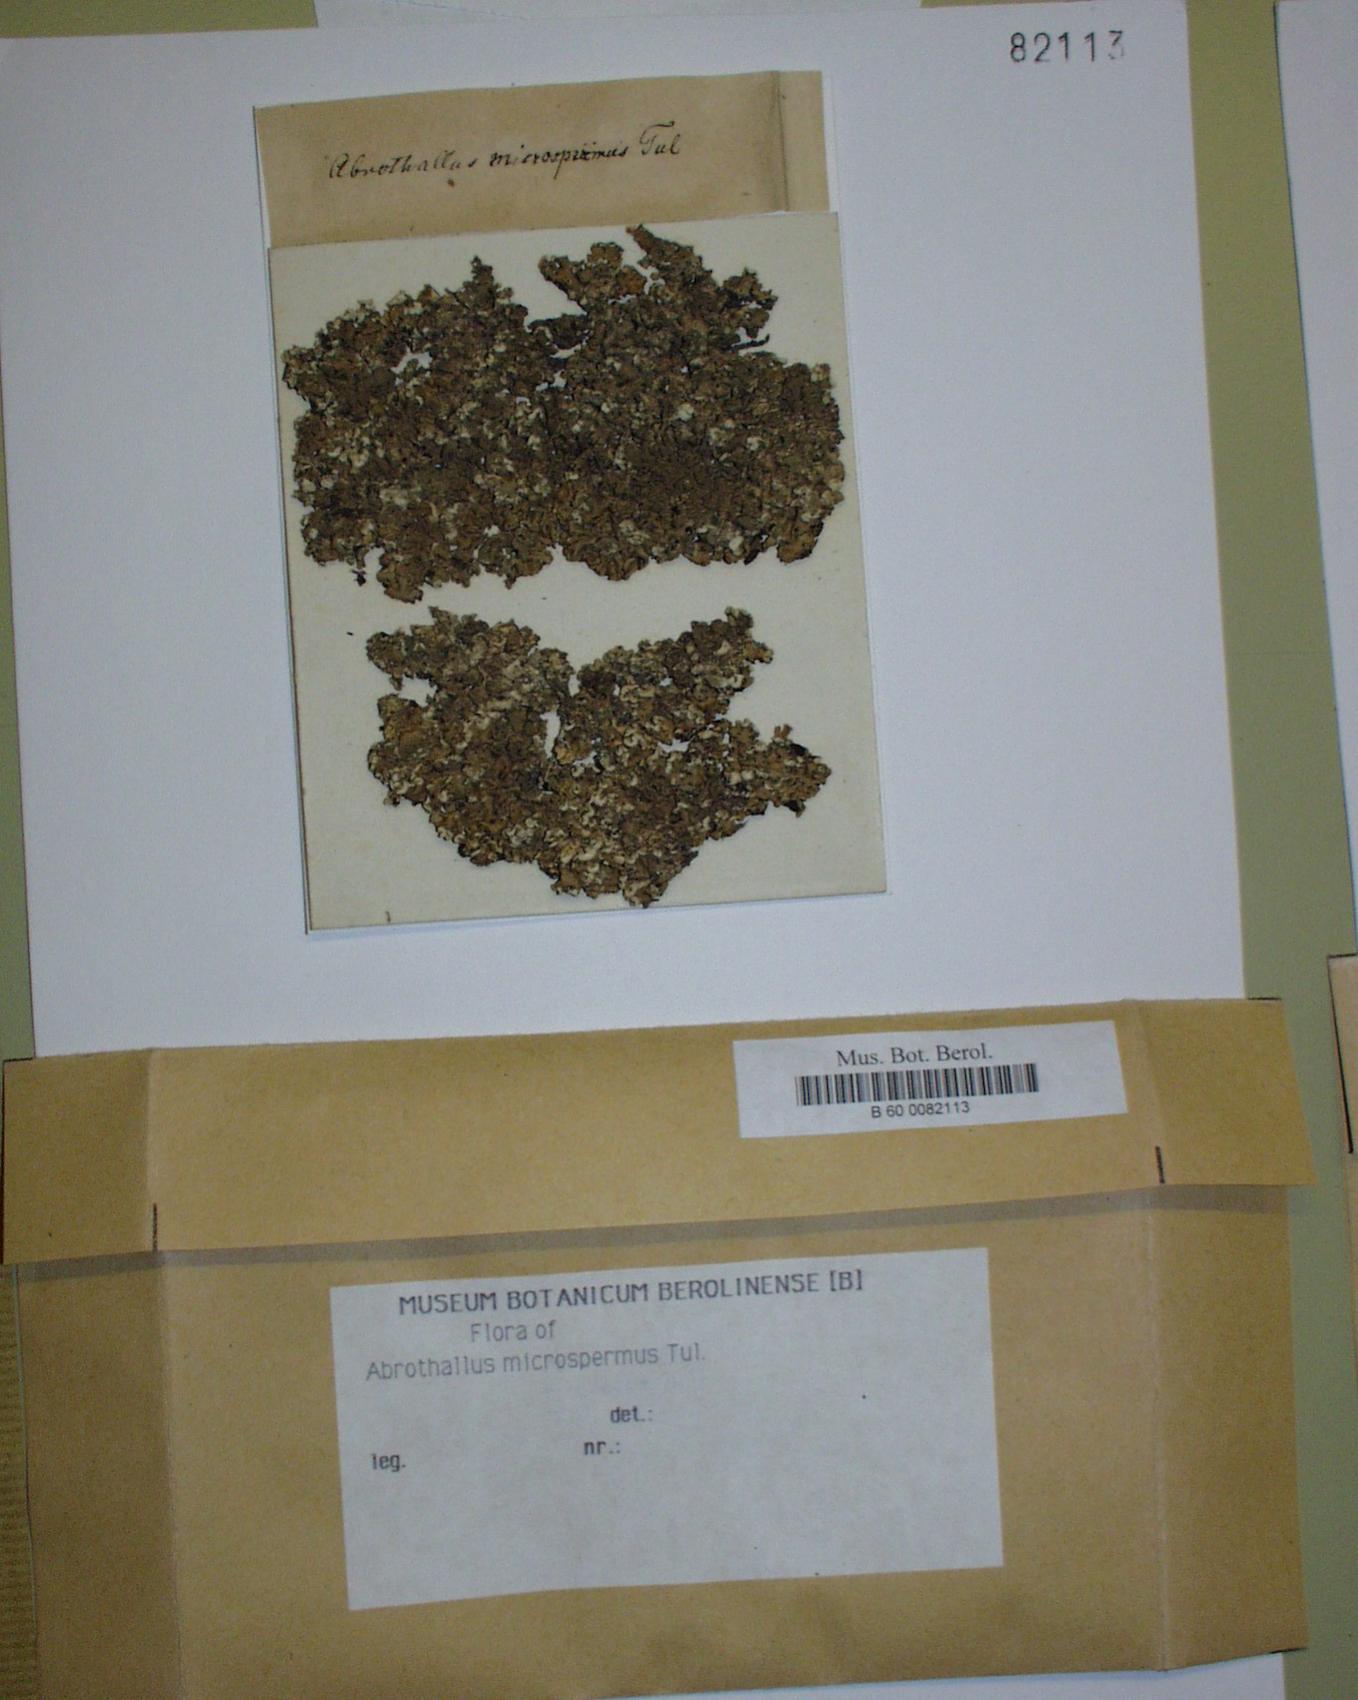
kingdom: Fungi
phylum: Ascomycota
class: Dothideomycetes
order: Abrothallales
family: Abrothallaceae
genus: Abrothallus
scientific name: Abrothallus microspermus
